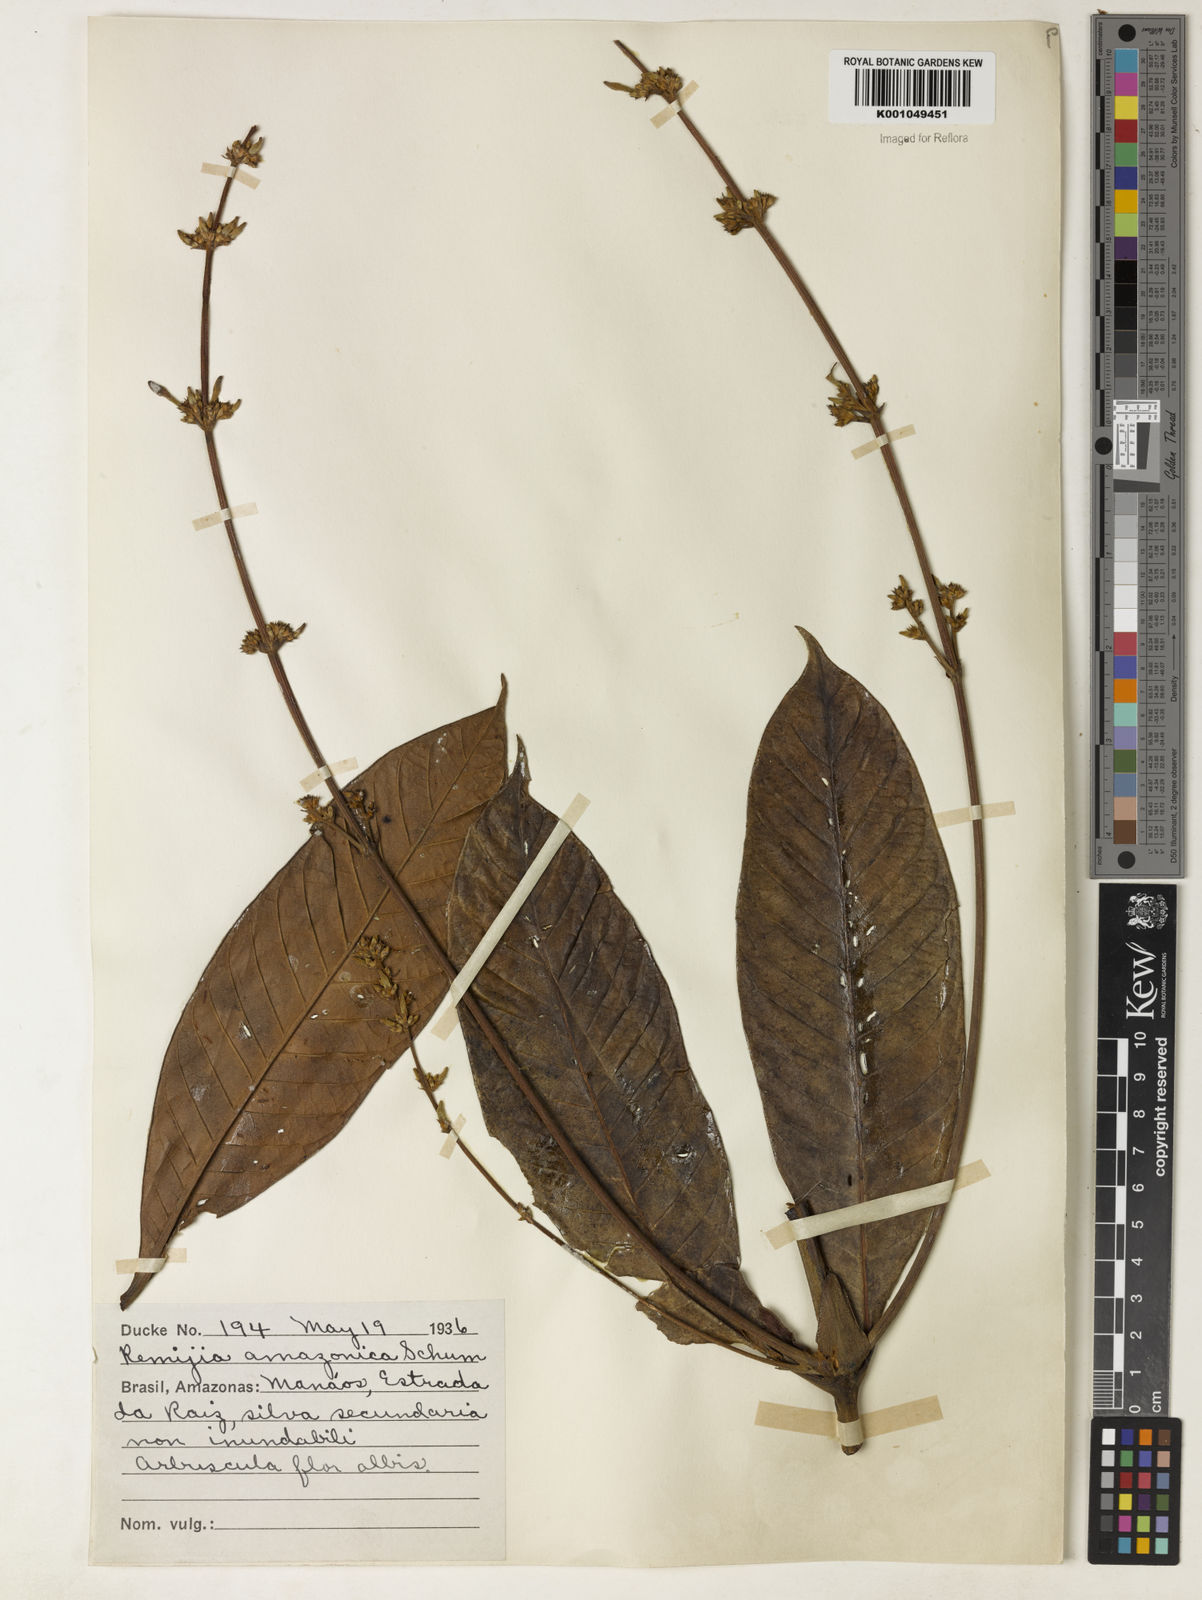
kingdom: Plantae
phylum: Tracheophyta
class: Magnoliopsida
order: Gentianales
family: Rubiaceae
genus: Remijia
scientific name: Remijia amazonica
